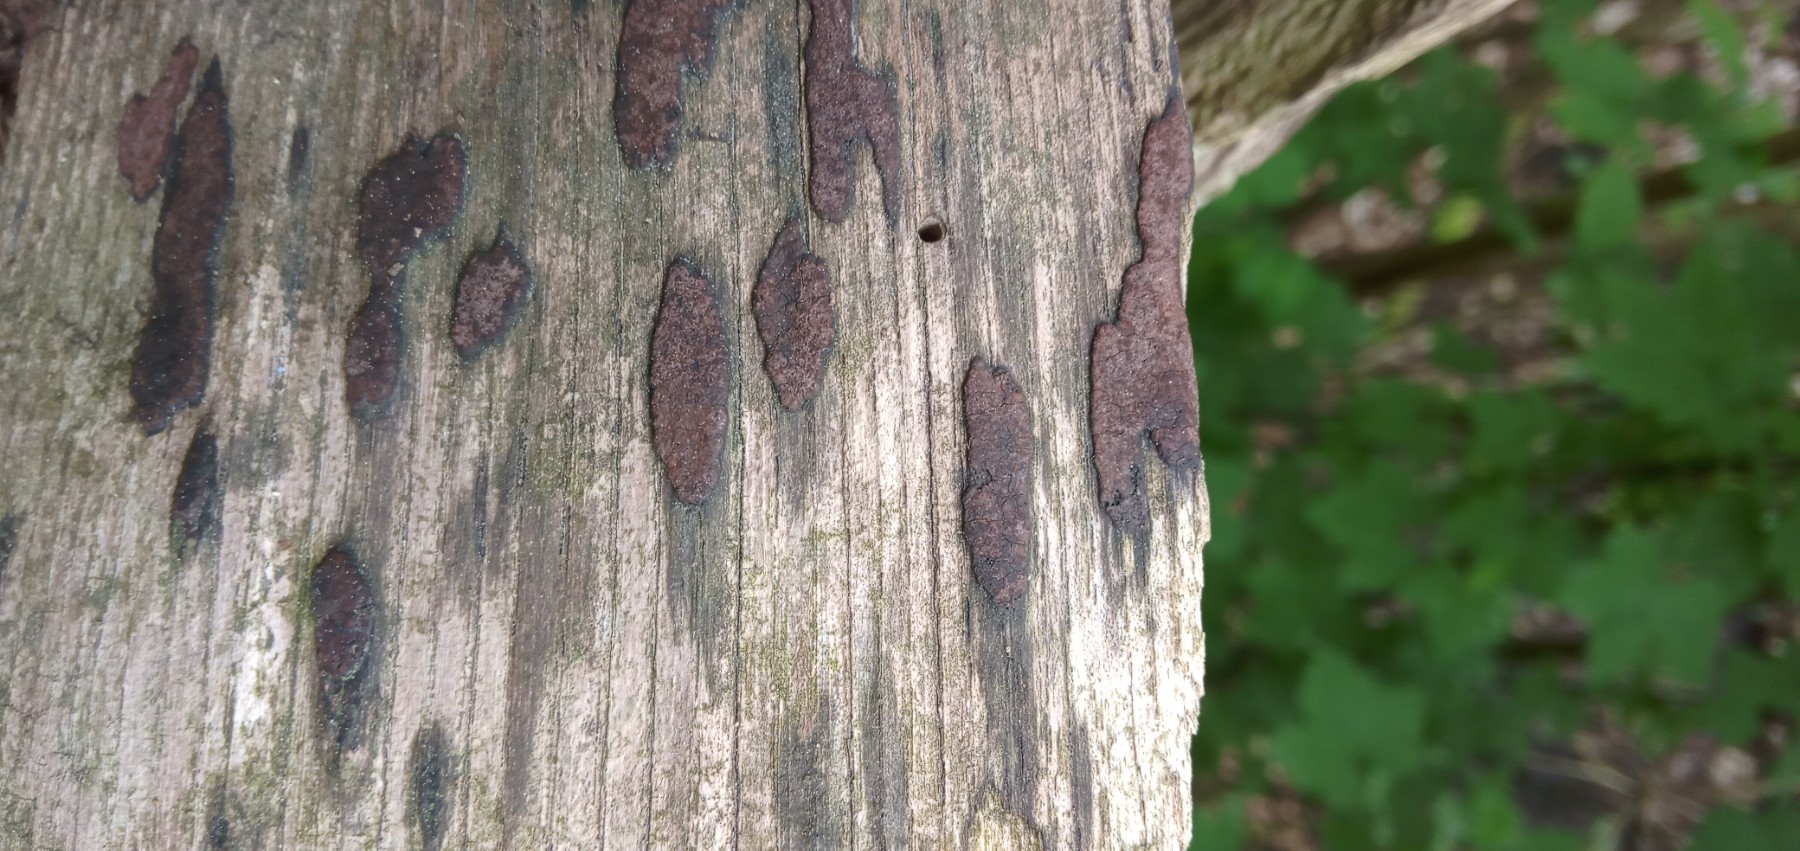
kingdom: Fungi
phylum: Ascomycota
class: Sordariomycetes
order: Xylariales
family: Hypoxylaceae
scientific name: Hypoxylaceae
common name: kulbærfamilien
